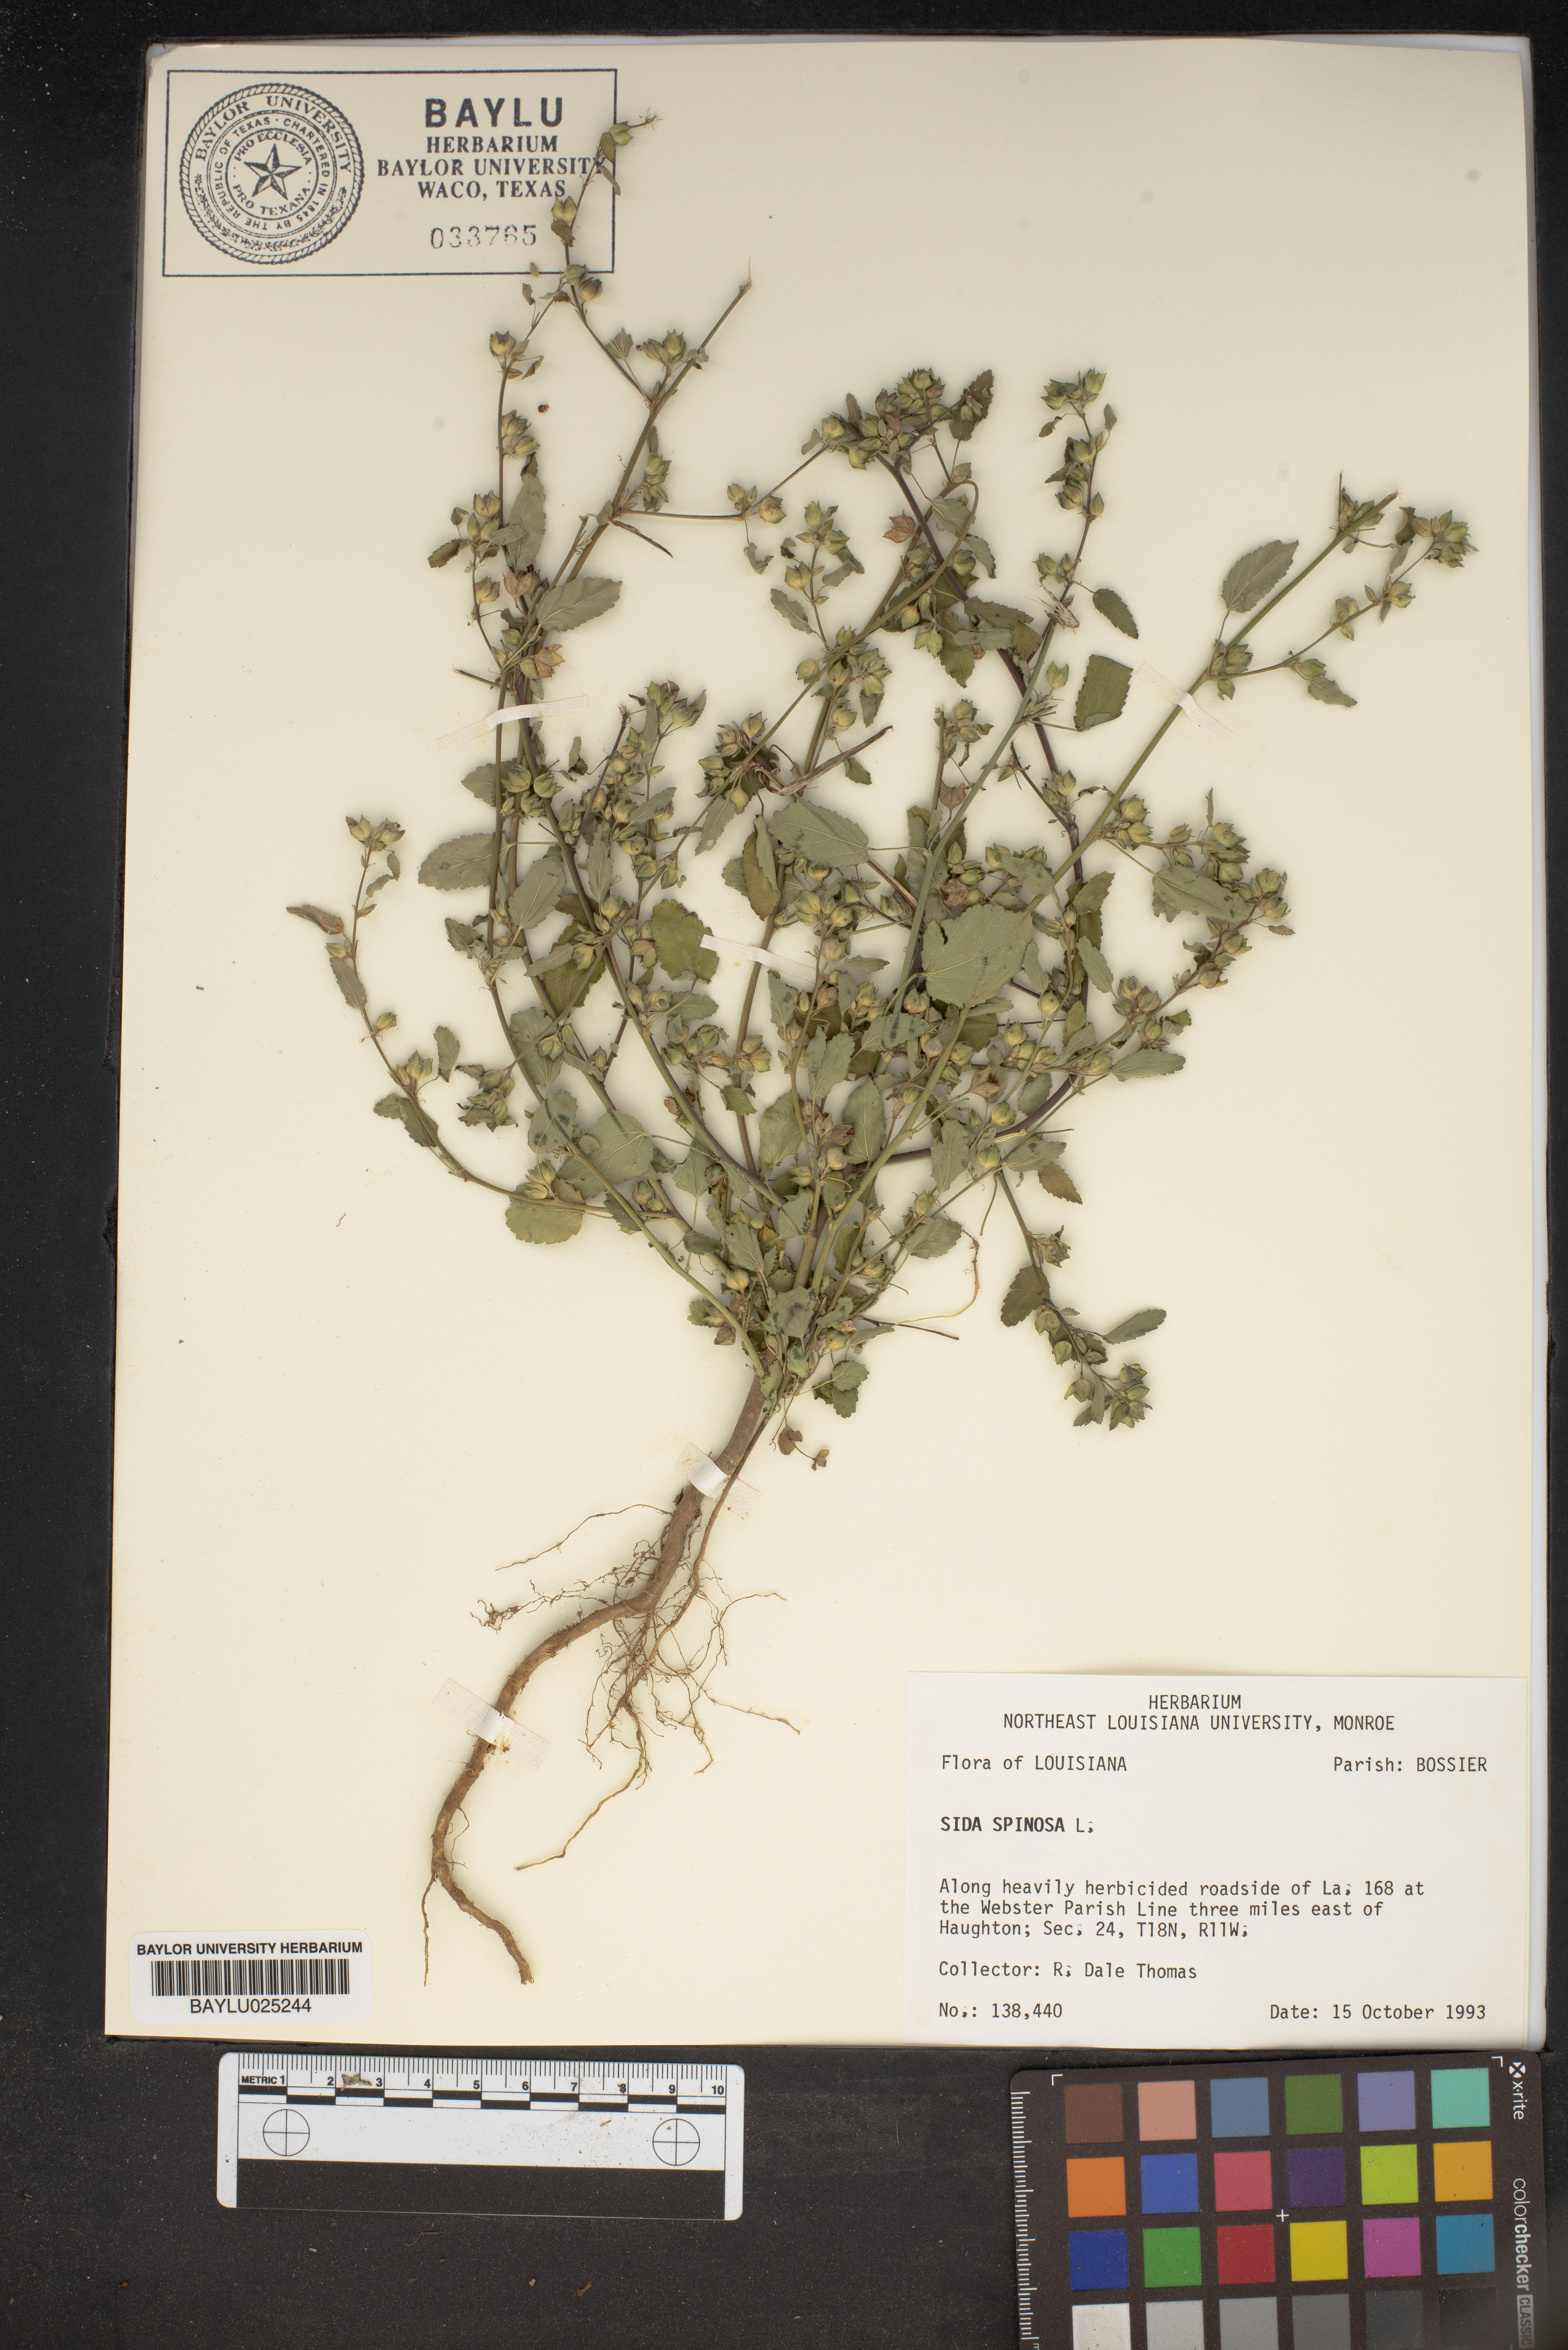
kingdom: Plantae
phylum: Tracheophyta
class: Magnoliopsida
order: Malvales
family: Malvaceae
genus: Sida
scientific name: Sida spinosa
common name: Prickly fanpetals
